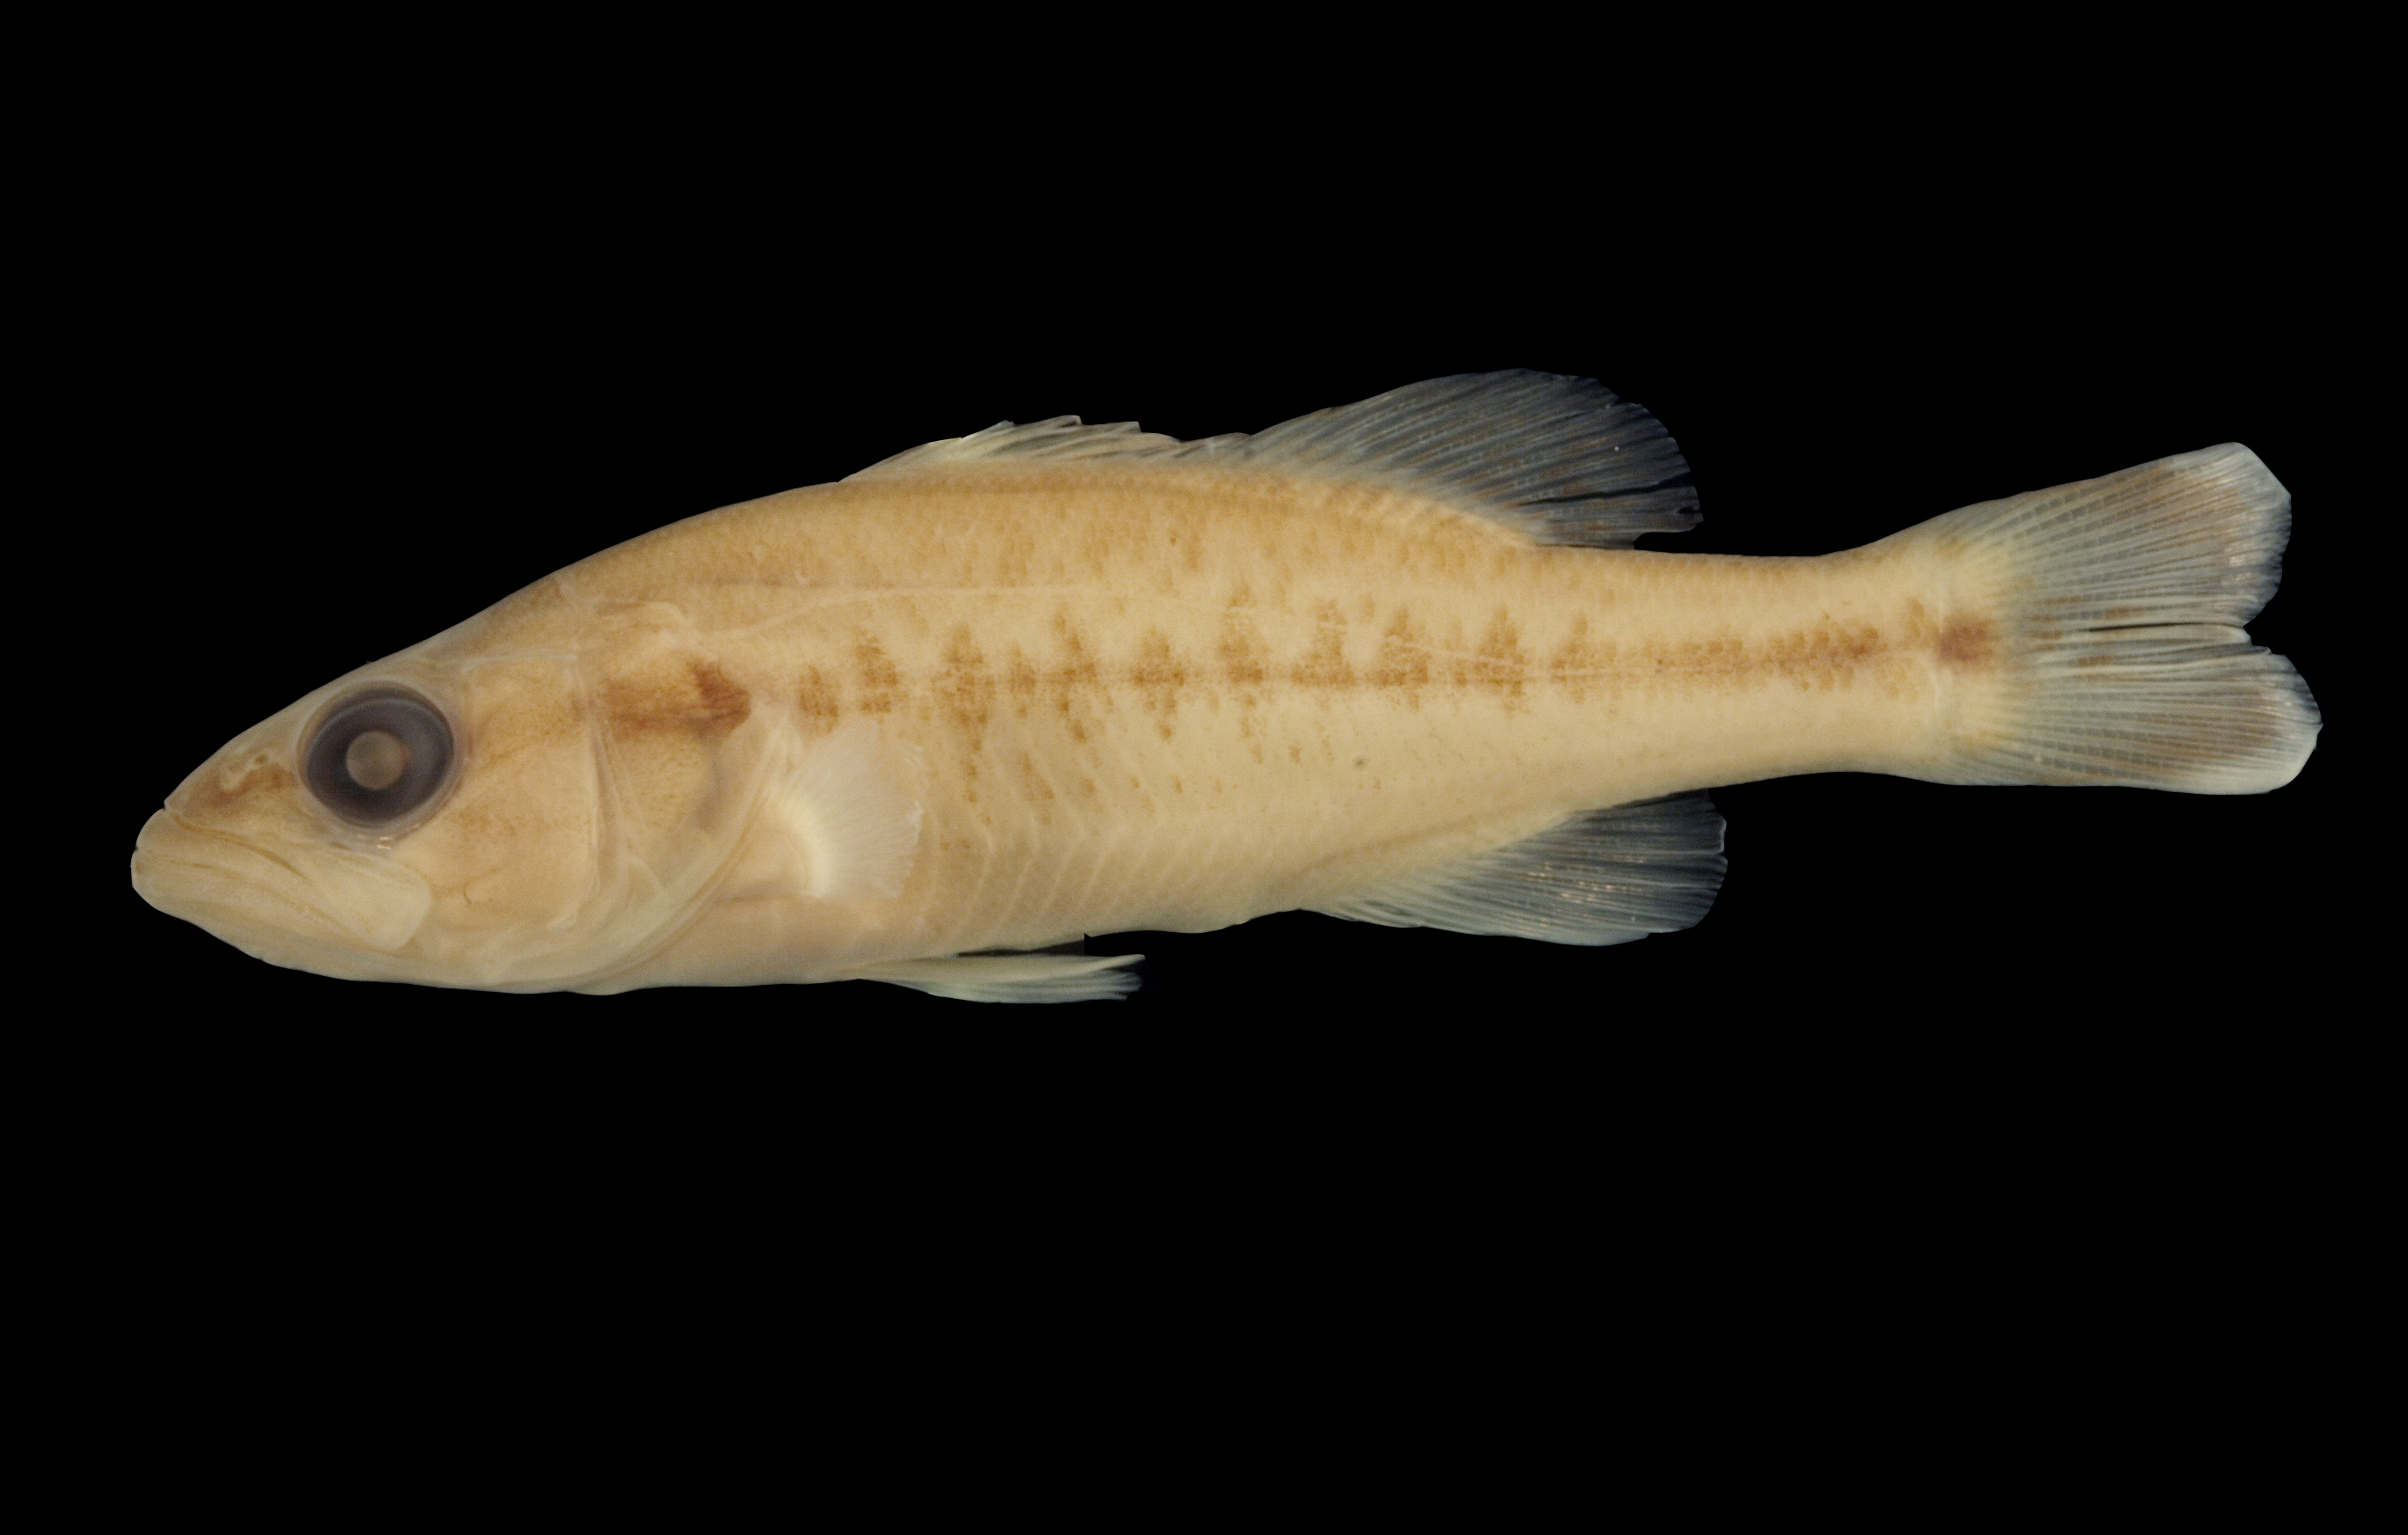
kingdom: Animalia
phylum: Chordata
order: Perciformes
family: Centrarchidae
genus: Micropterus
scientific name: Micropterus punctulatus
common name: Spotted bass
